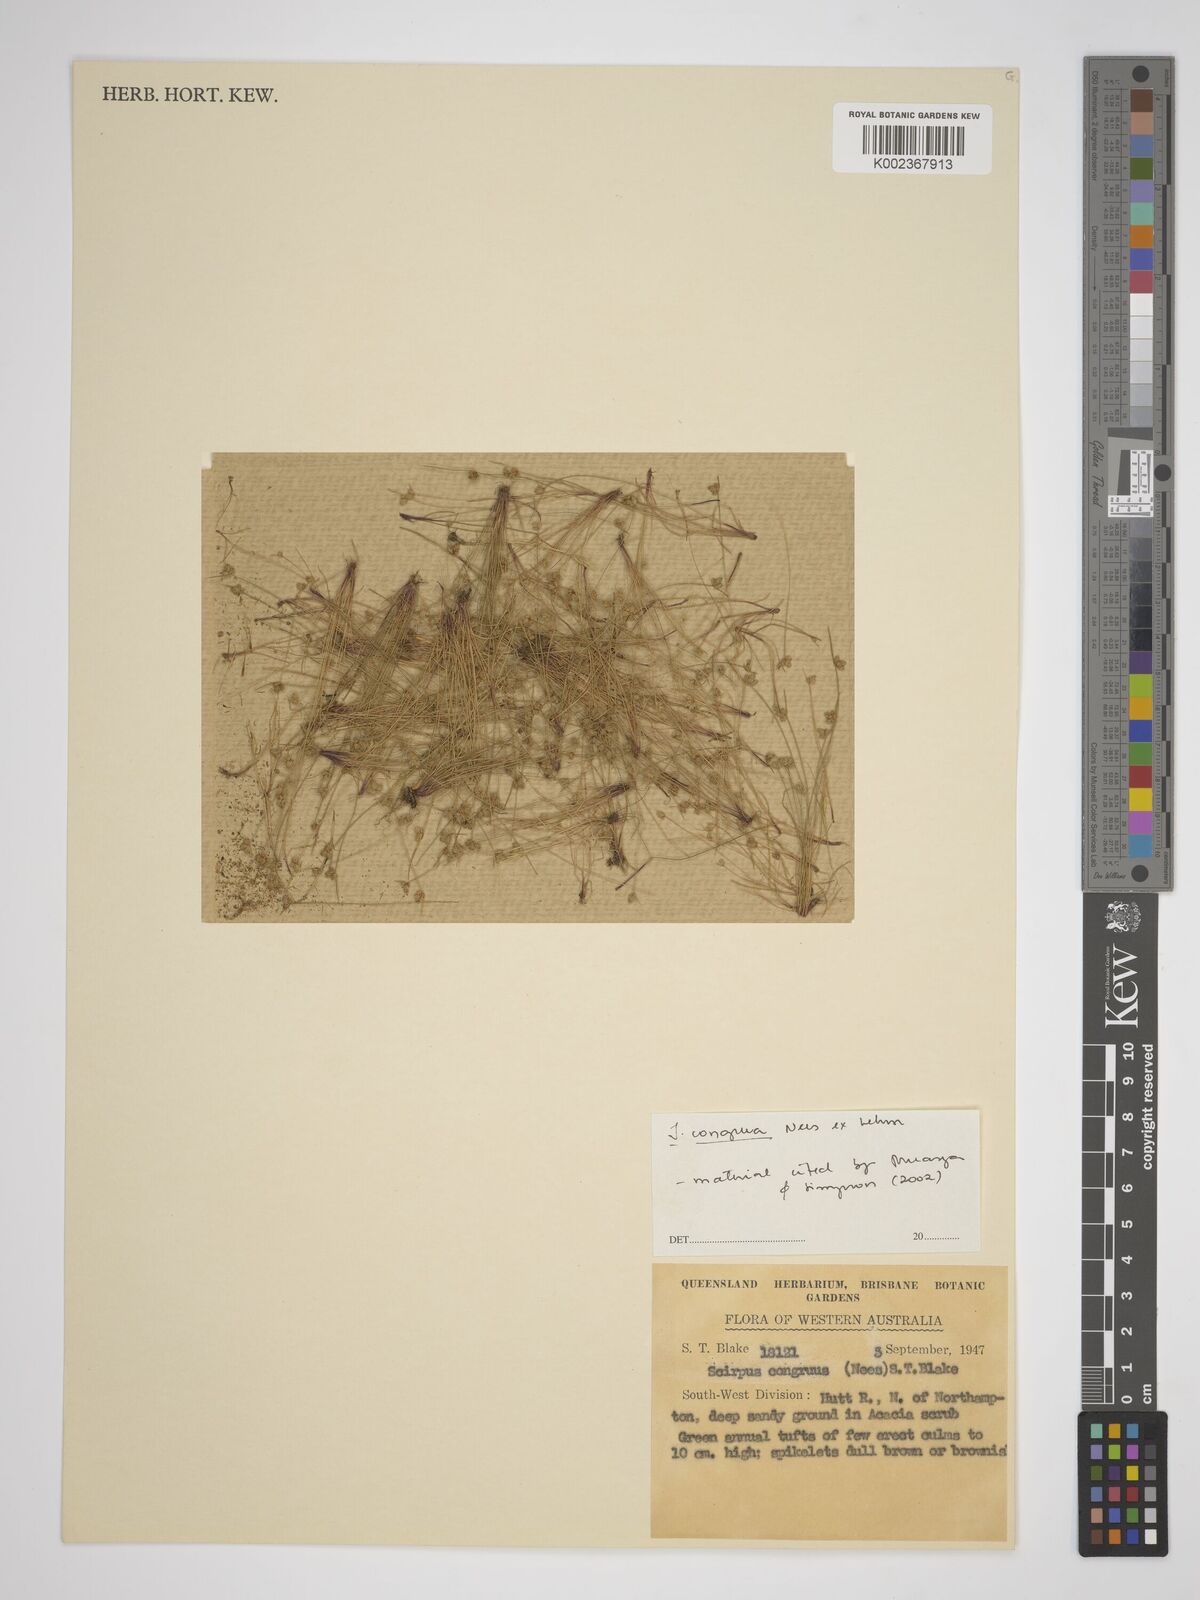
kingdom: Plantae
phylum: Tracheophyta
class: Liliopsida
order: Poales
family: Cyperaceae
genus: Isolepis
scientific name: Isolepis congrua
